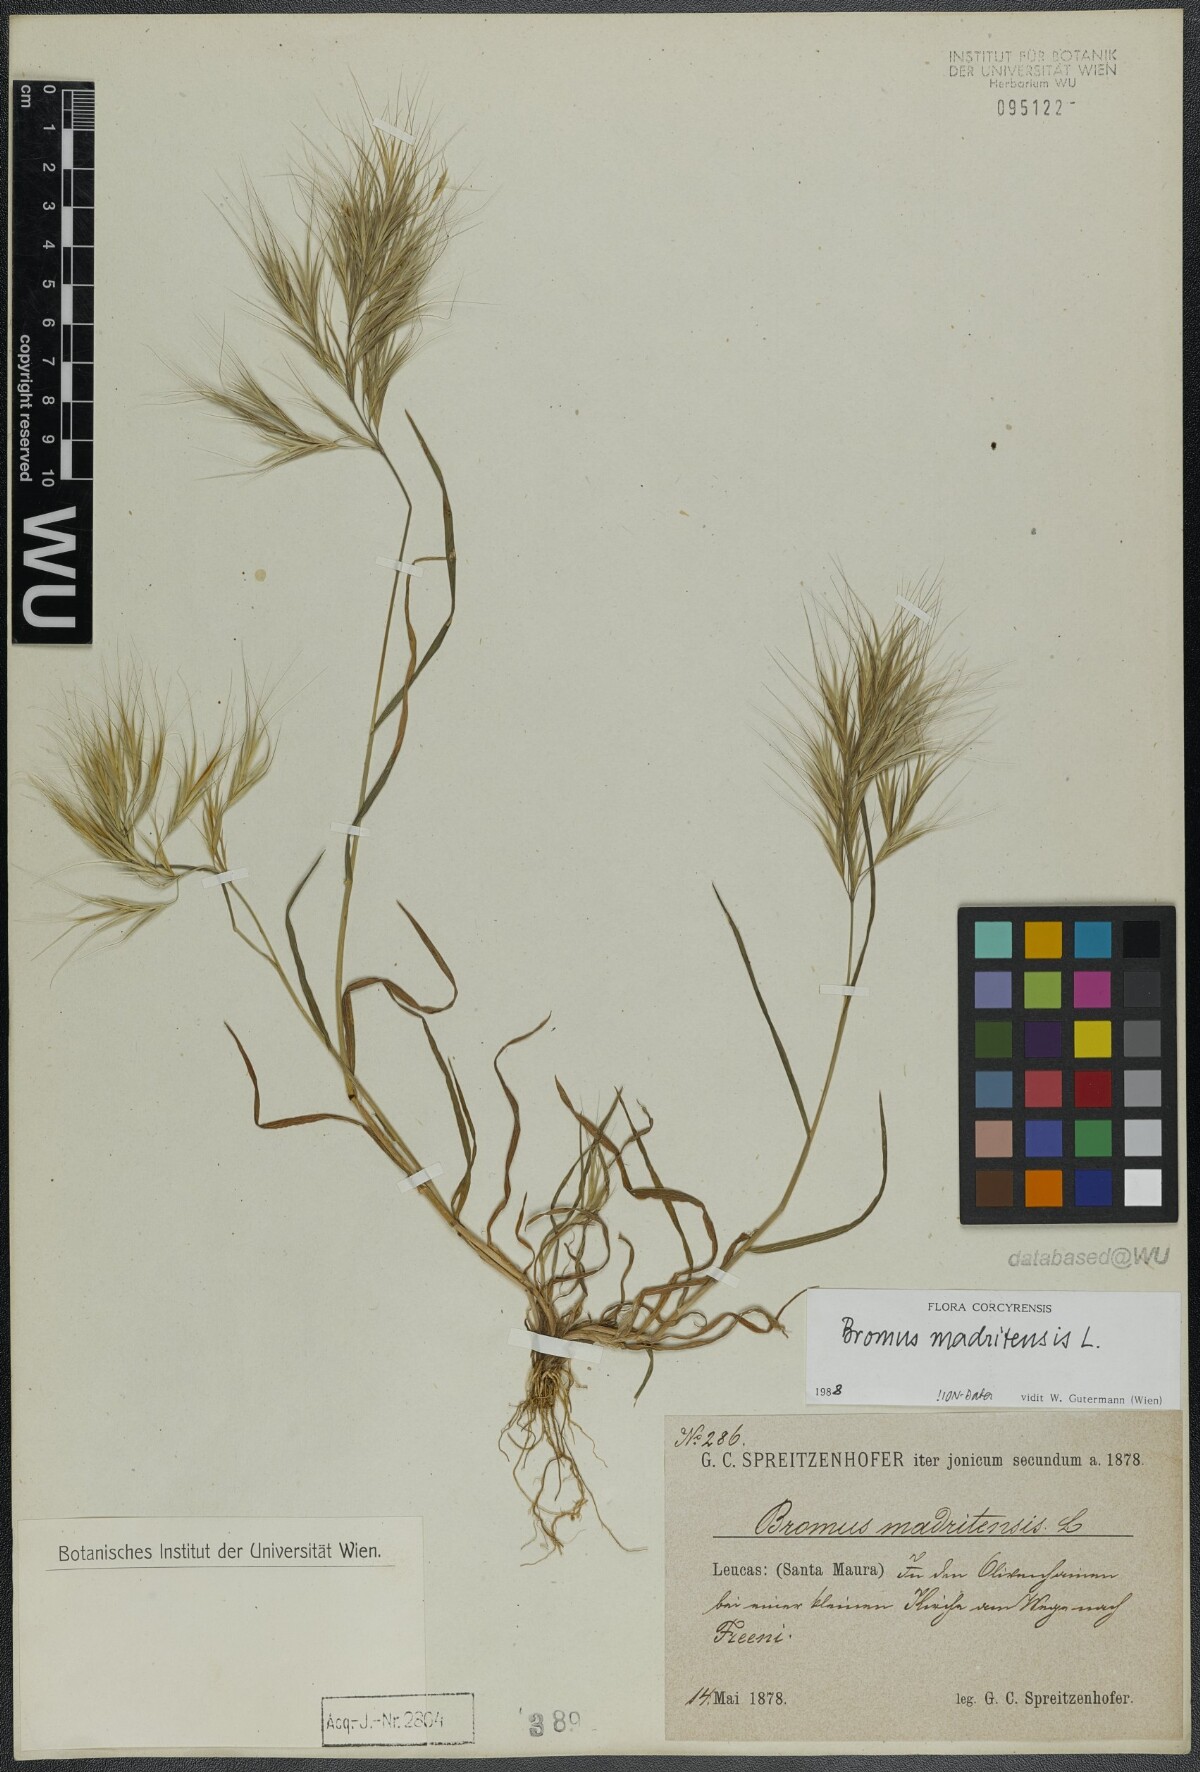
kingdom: Plantae
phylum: Tracheophyta
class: Liliopsida
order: Poales
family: Poaceae
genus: Bromus
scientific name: Bromus madritensis
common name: Compact brome
